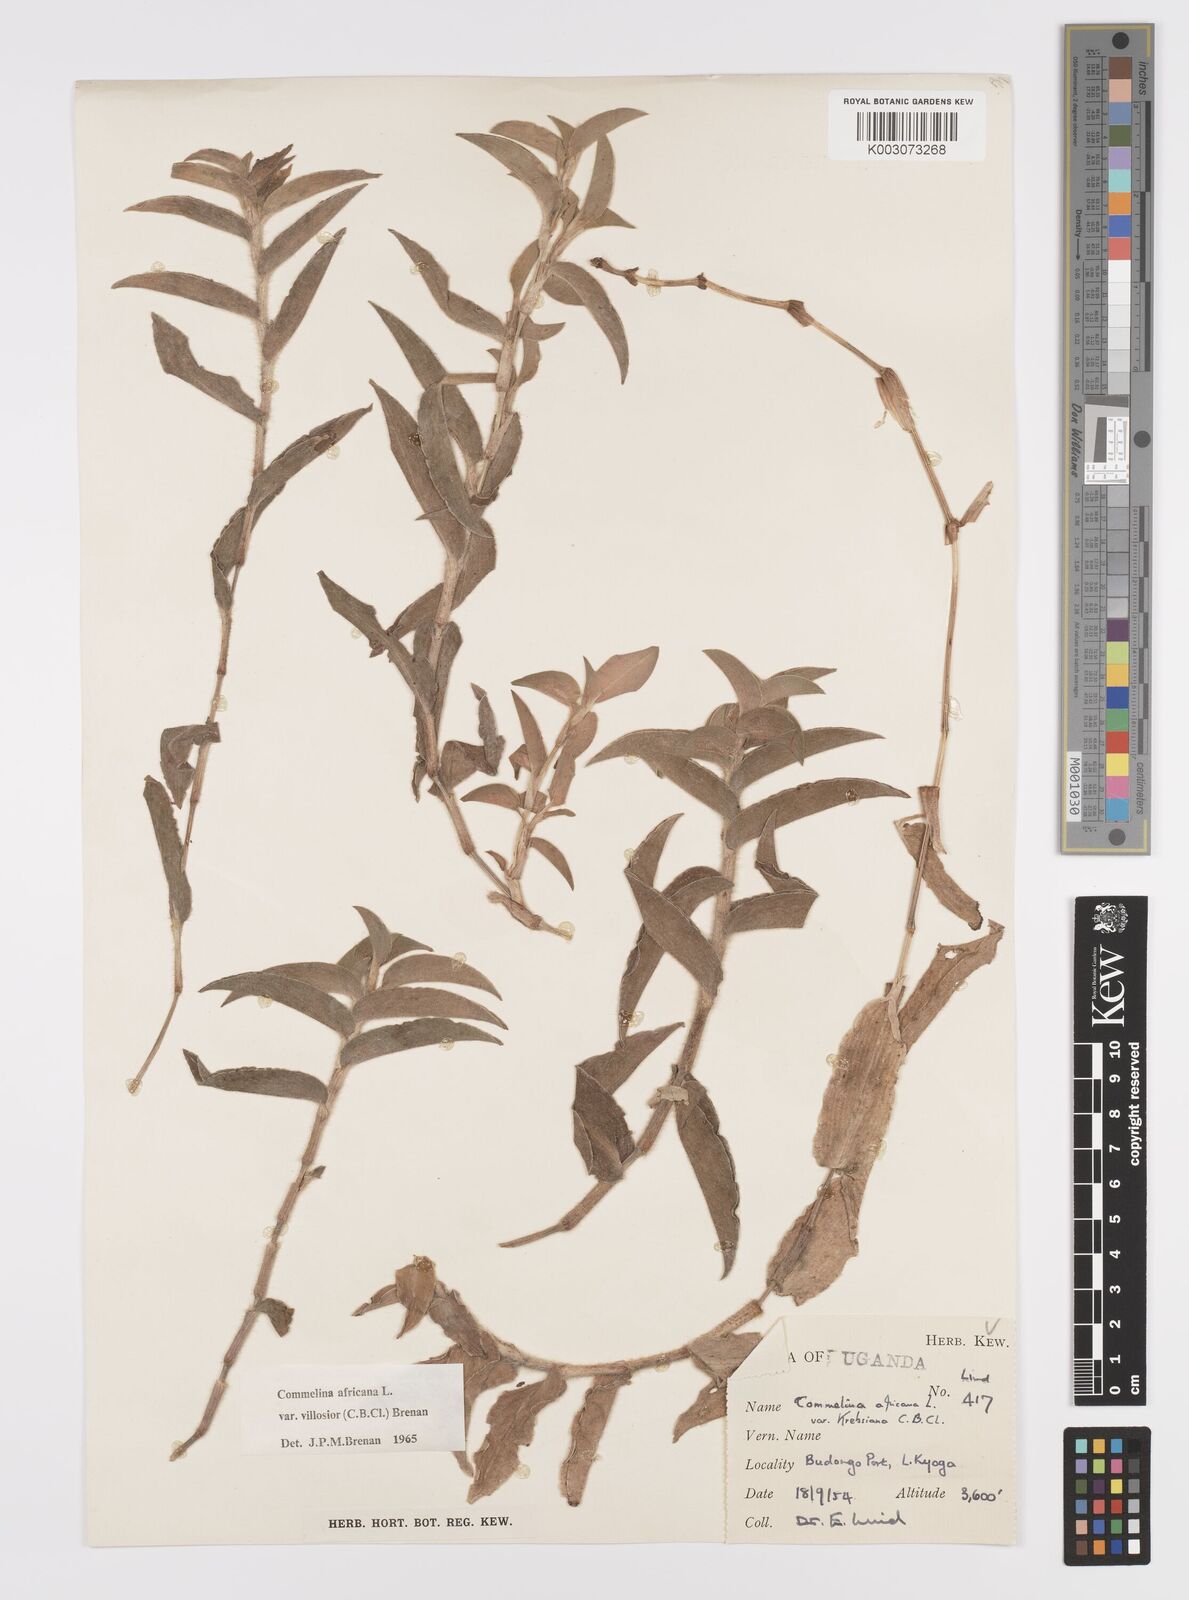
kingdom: Plantae
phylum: Tracheophyta
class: Liliopsida
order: Commelinales
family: Commelinaceae
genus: Commelina
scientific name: Commelina africana
